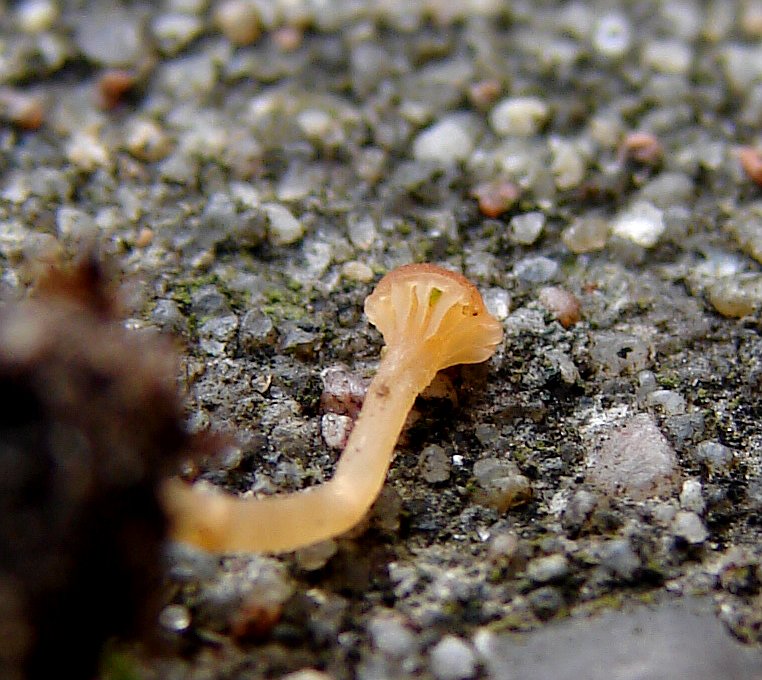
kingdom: Fungi
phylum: Basidiomycota
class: Agaricomycetes
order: Hymenochaetales
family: Rickenellaceae
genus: Loreleia
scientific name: Loreleia marchantiae
